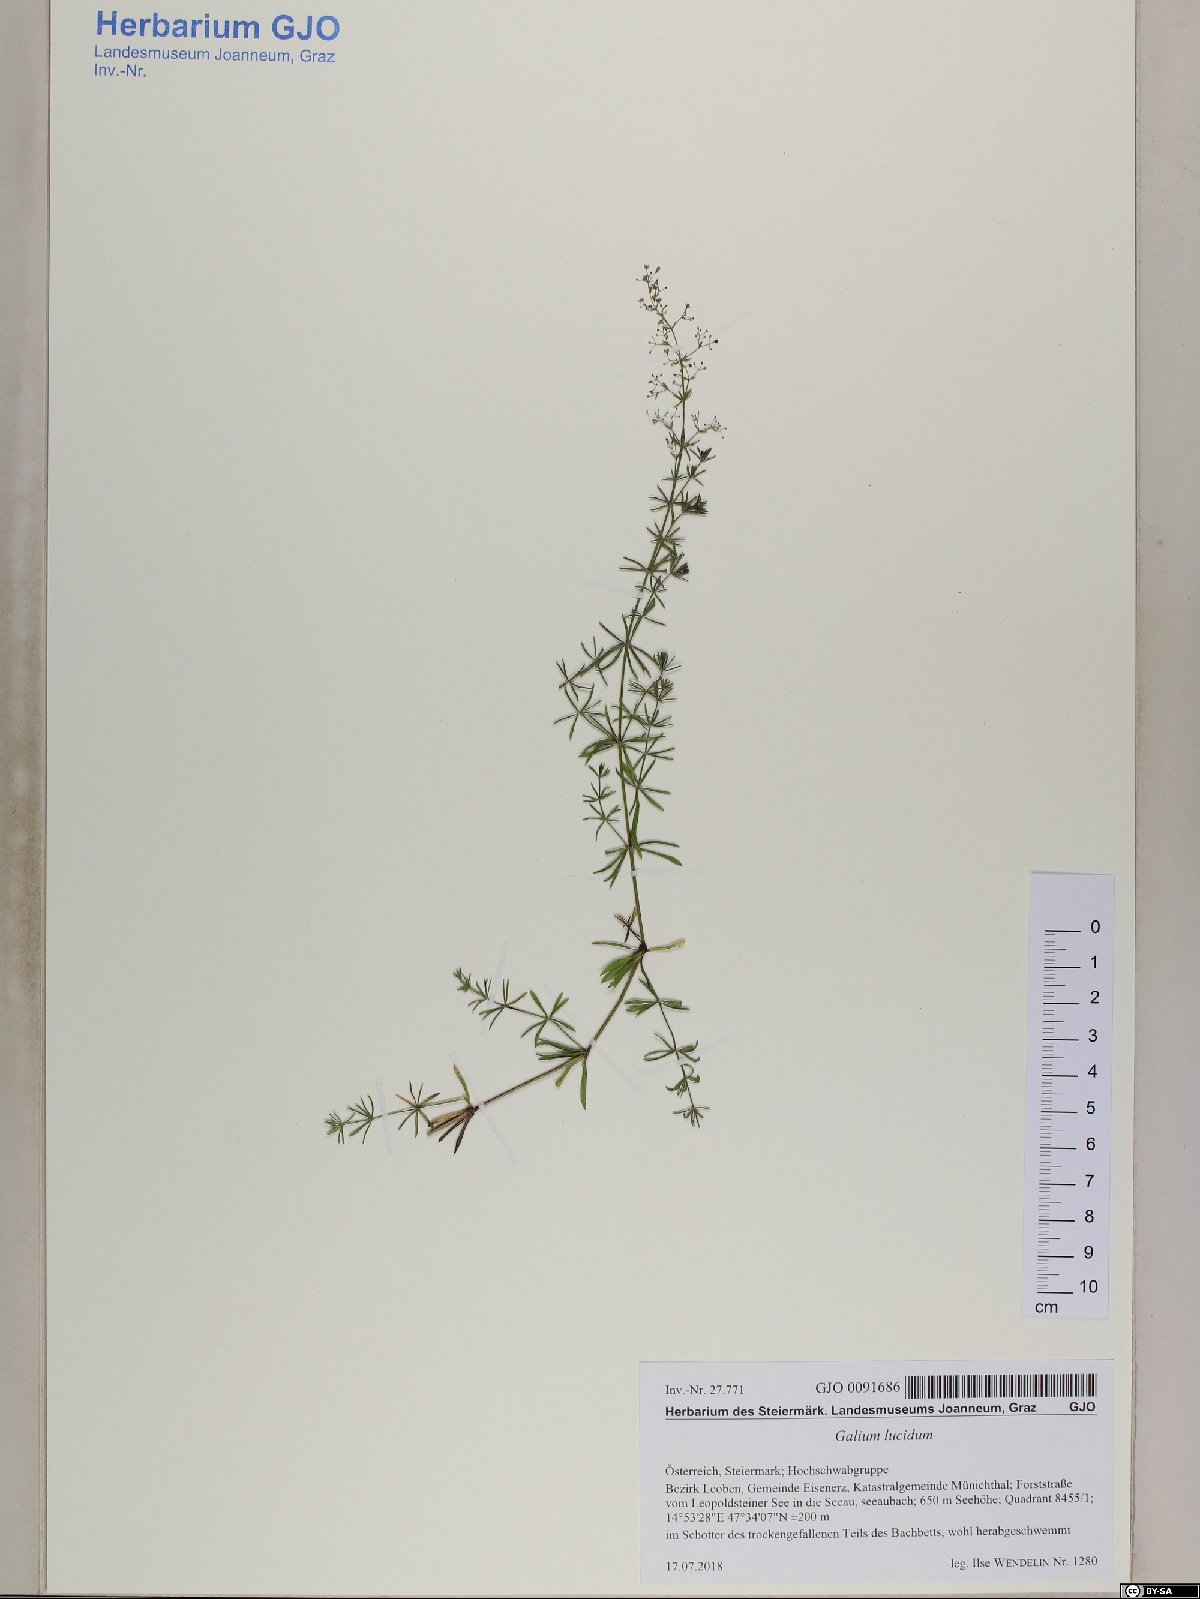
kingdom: Plantae
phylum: Tracheophyta
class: Magnoliopsida
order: Gentianales
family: Rubiaceae
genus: Galium
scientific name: Galium lucidum
